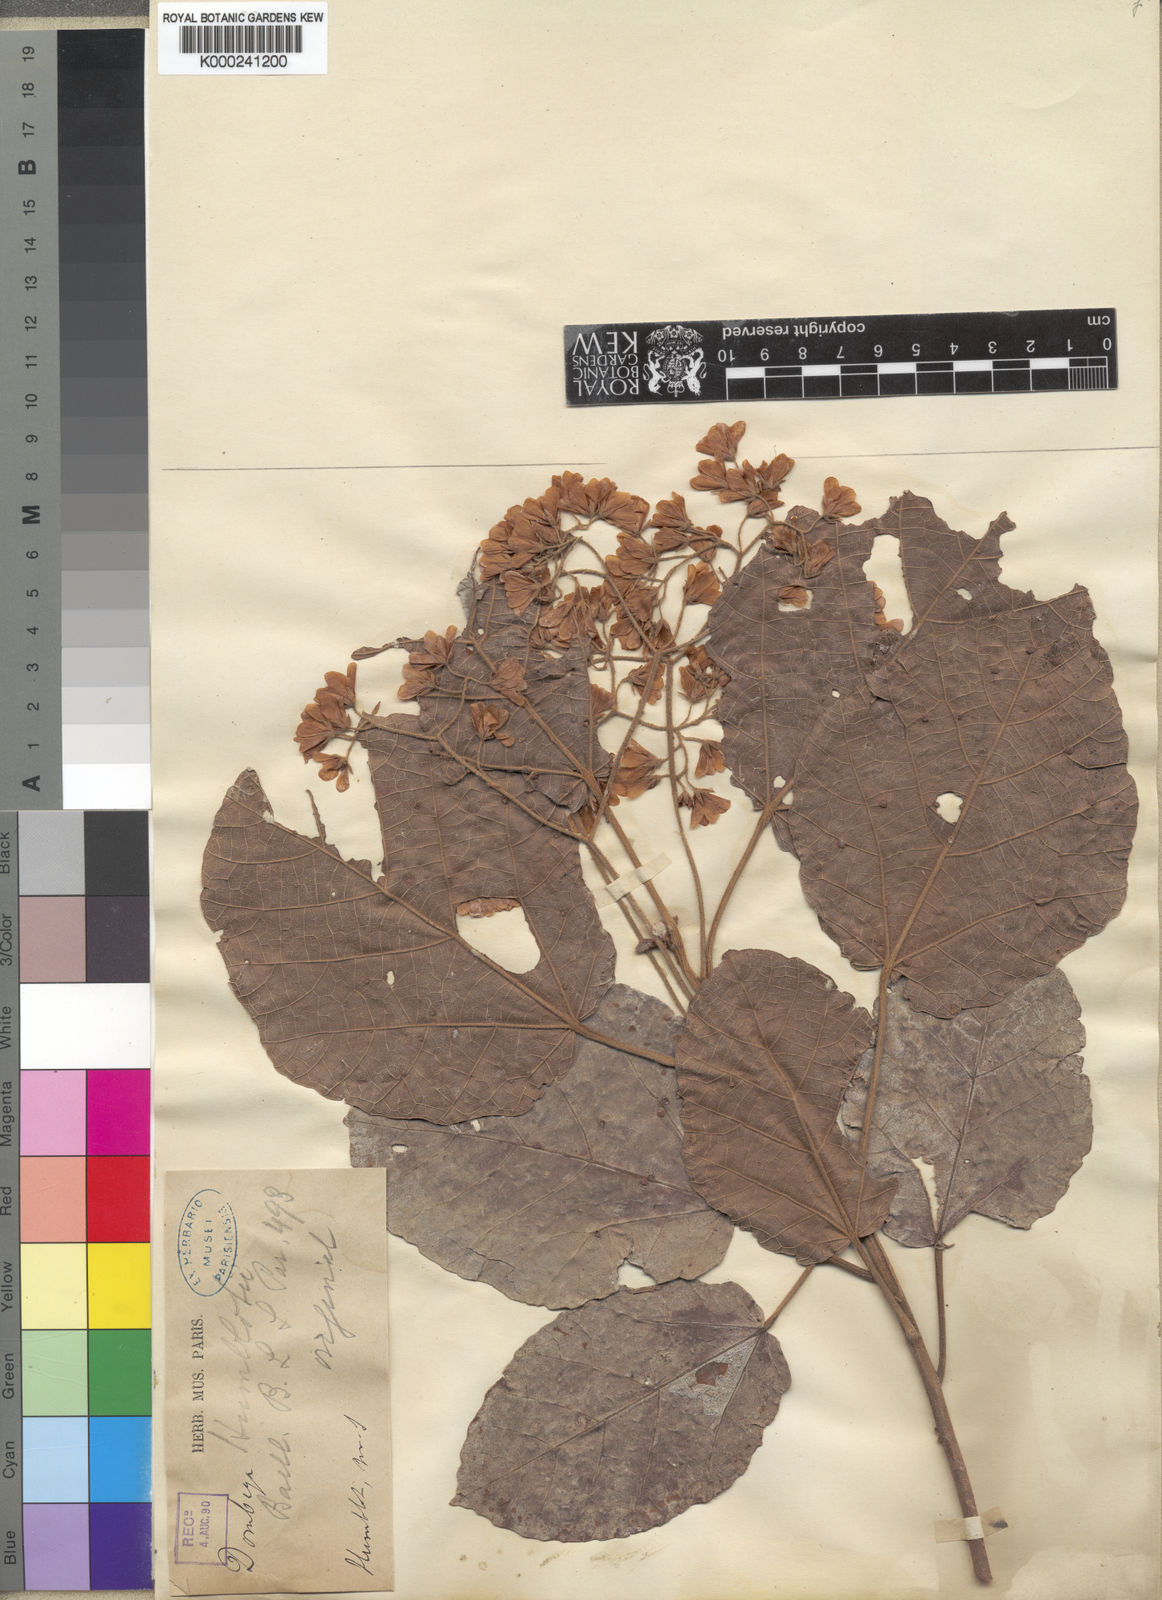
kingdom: Plantae
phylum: Tracheophyta
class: Magnoliopsida
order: Malvales
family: Malvaceae
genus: Dombeya
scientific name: Dombeya
